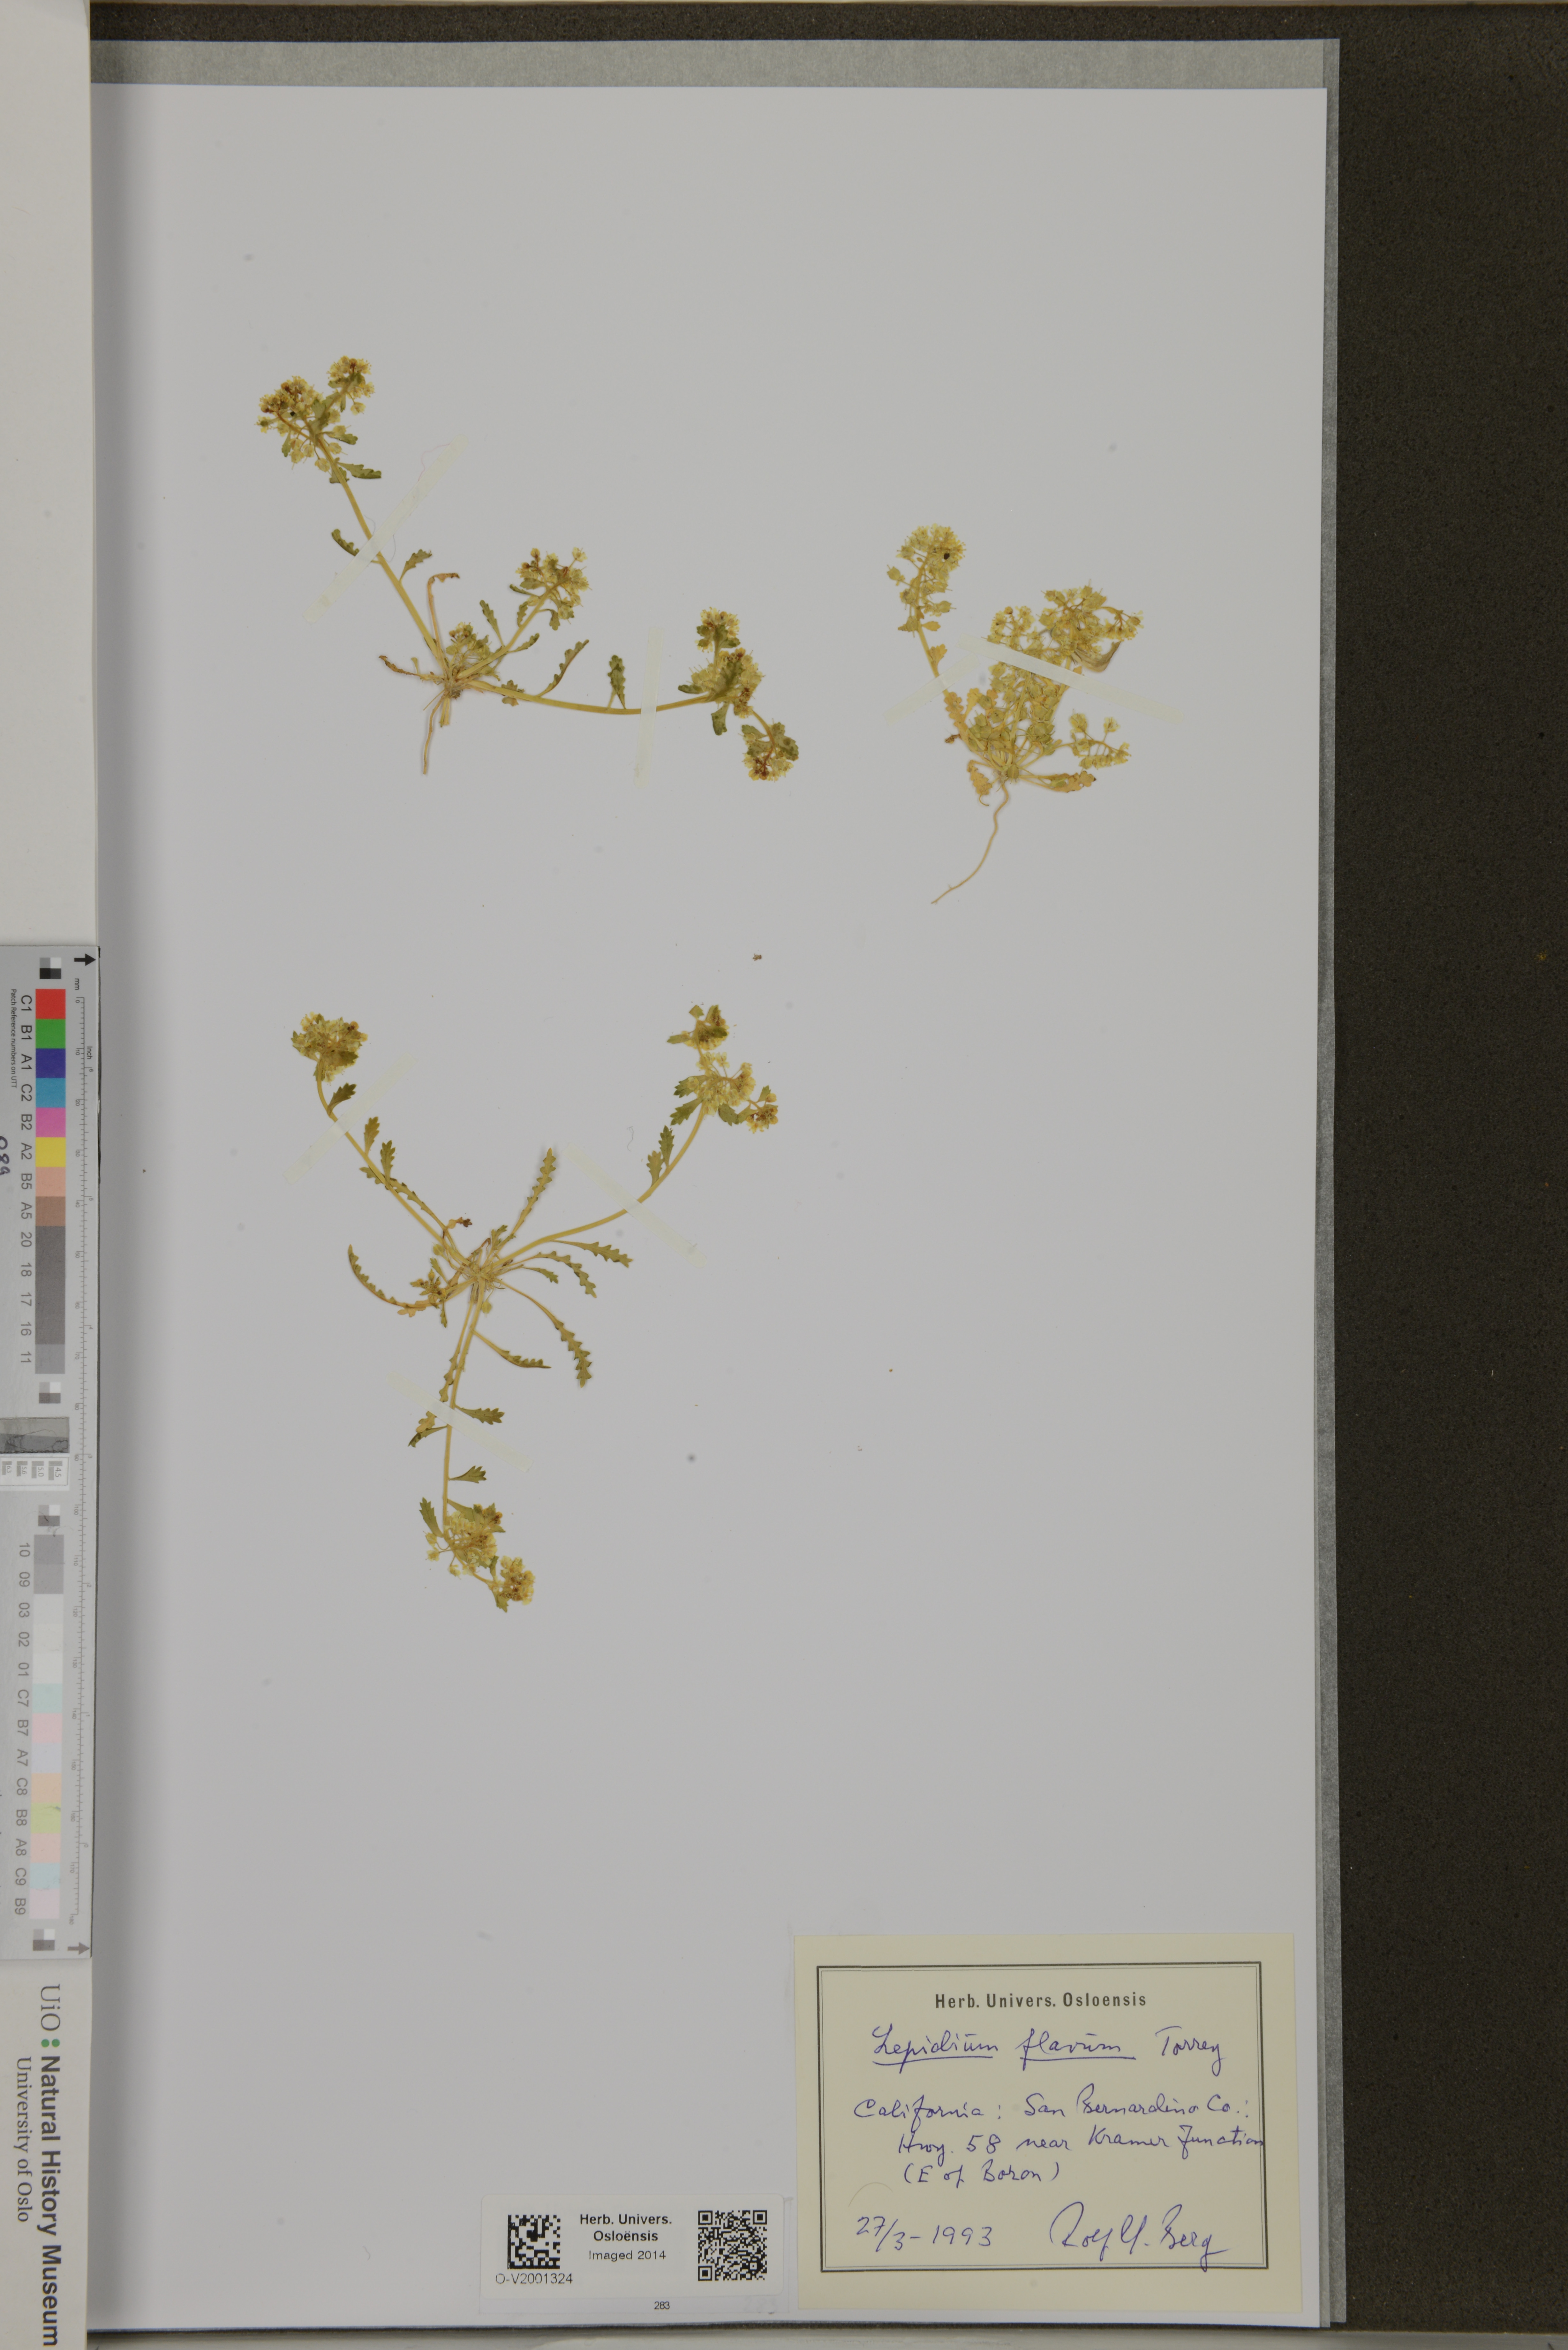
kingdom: Plantae
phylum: Tracheophyta
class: Magnoliopsida
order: Brassicales
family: Brassicaceae
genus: Lepidium
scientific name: Lepidium flavum
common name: Yellow pepperwort
